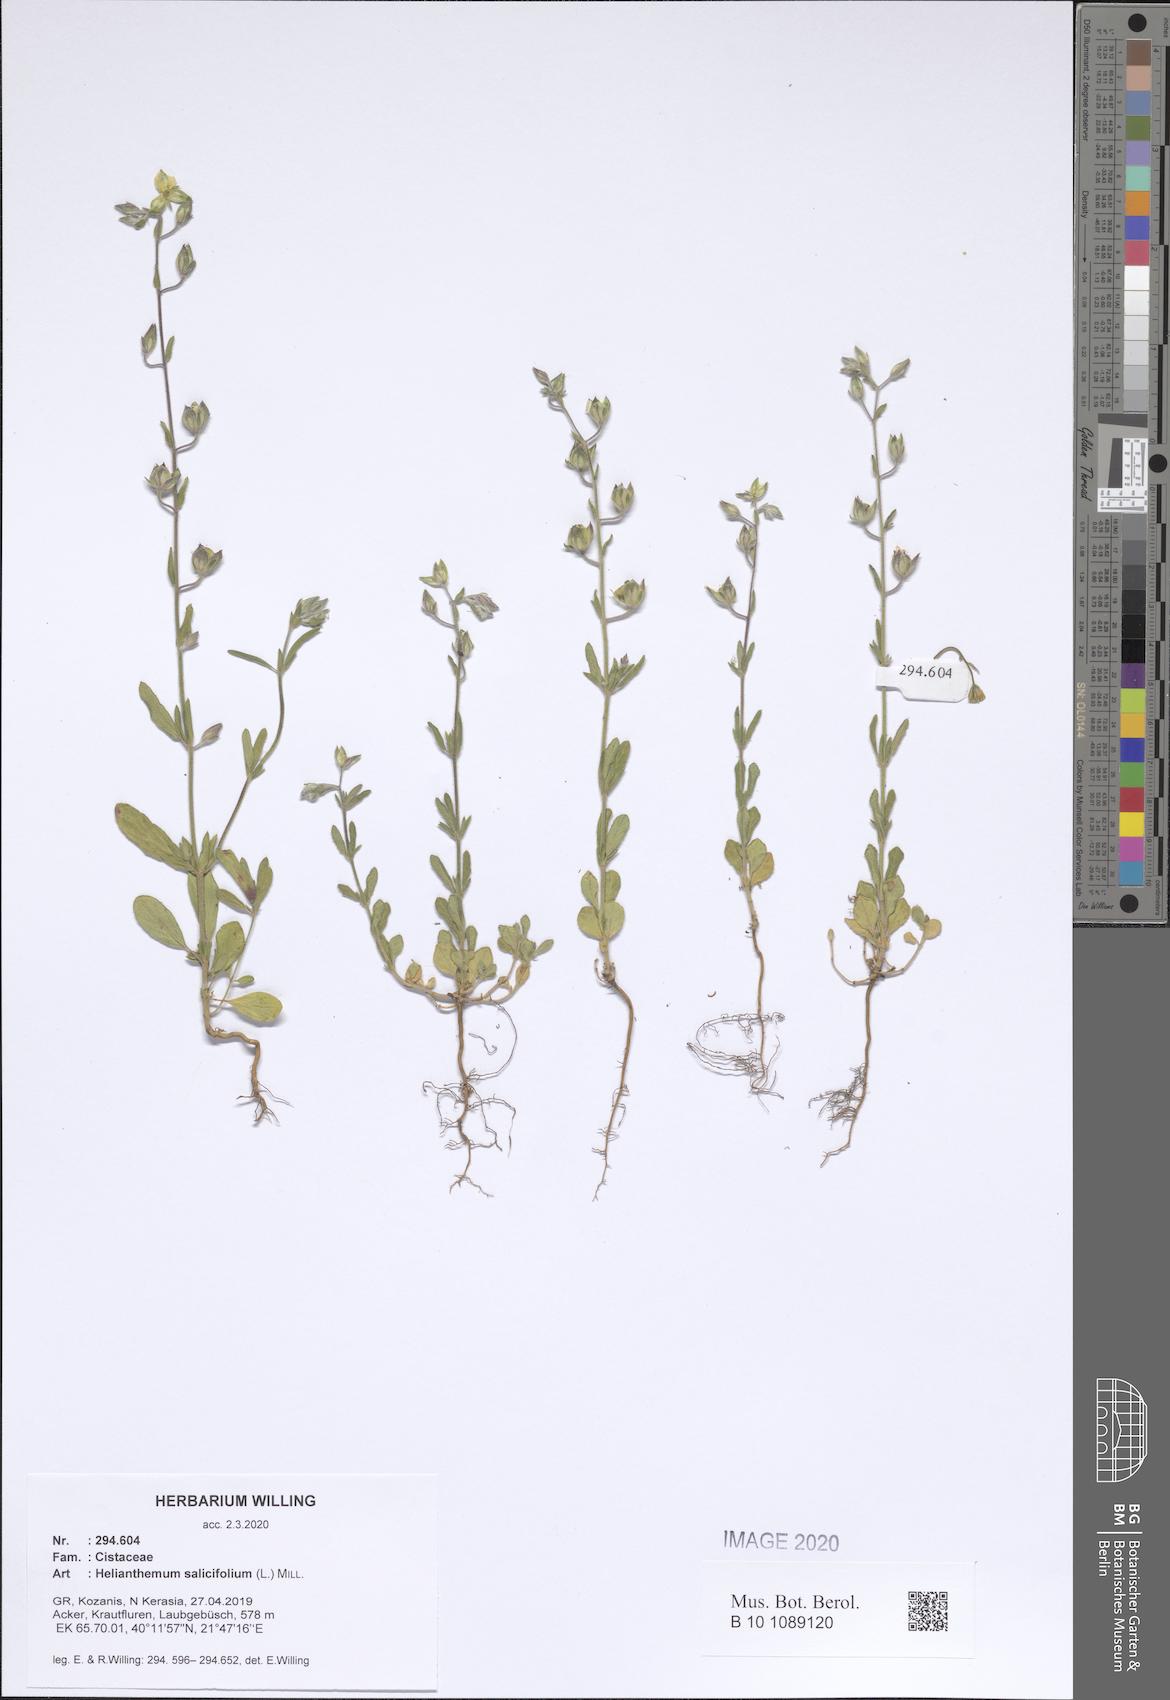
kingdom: Plantae
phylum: Tracheophyta
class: Magnoliopsida
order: Malvales
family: Cistaceae
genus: Helianthemum
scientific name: Helianthemum salicifolium
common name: Willowleaf frostweed
